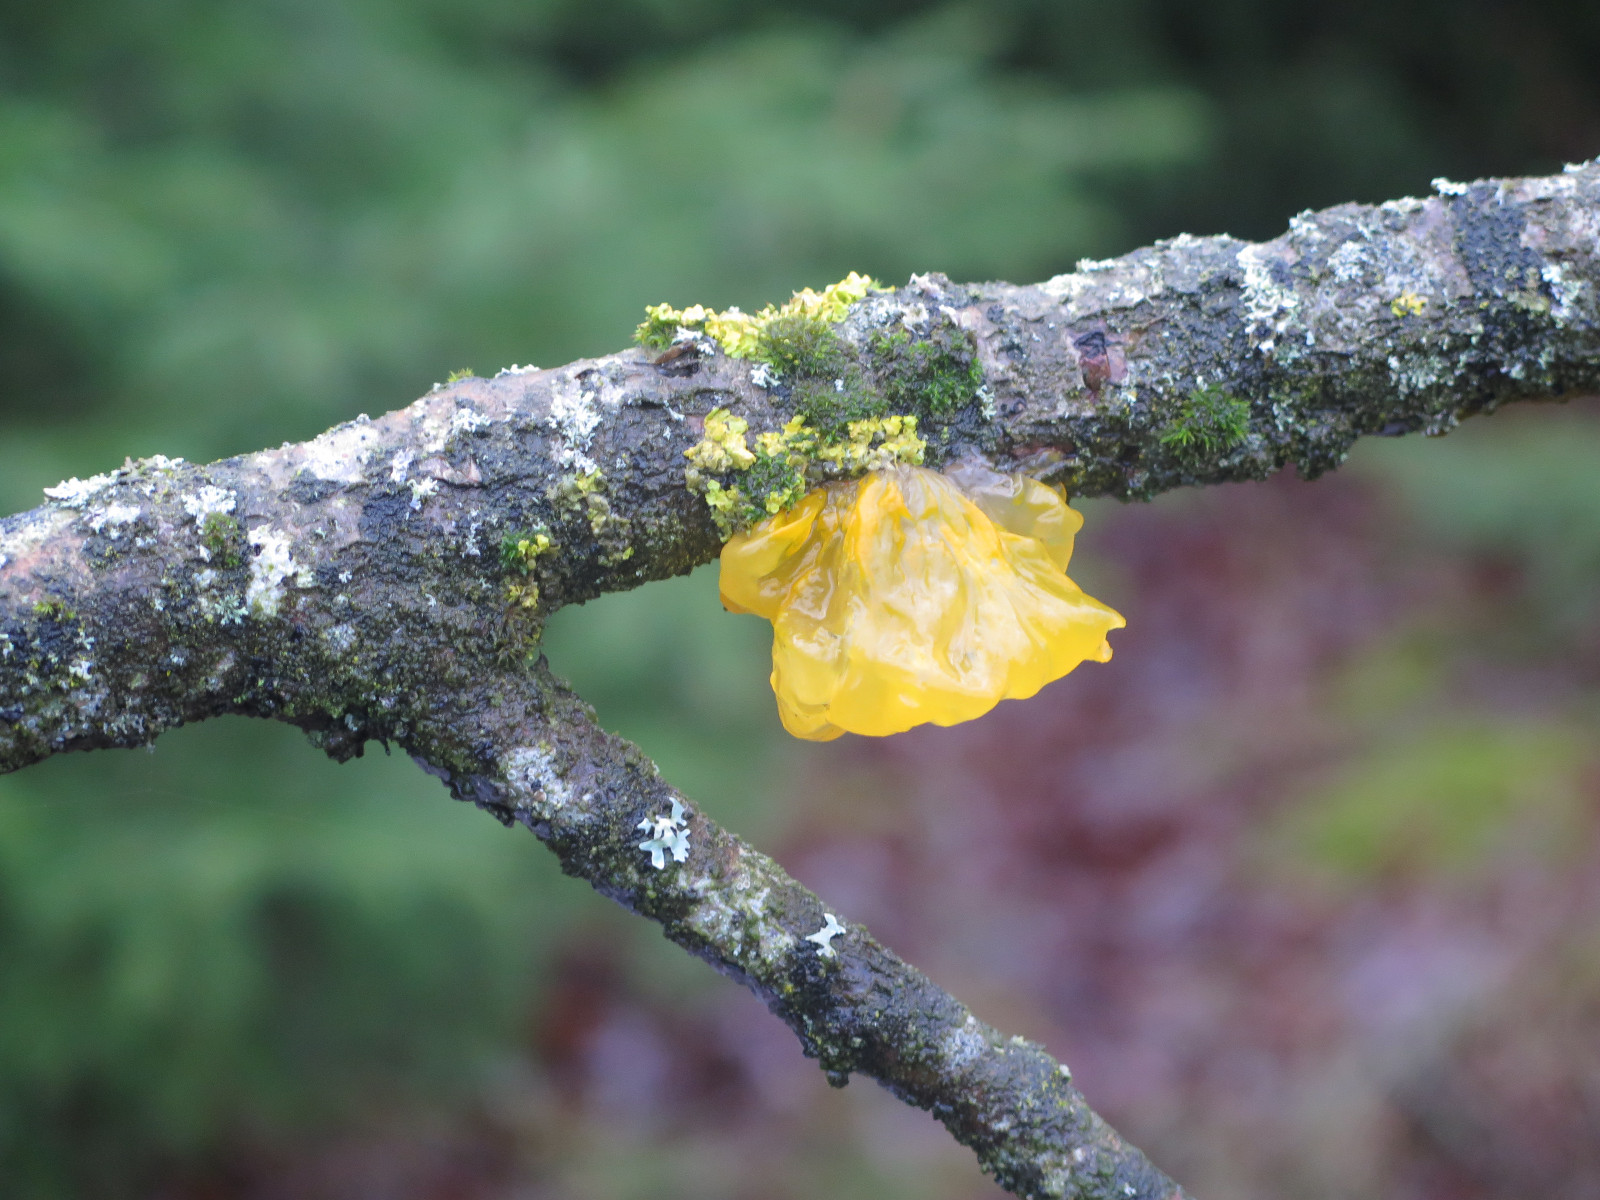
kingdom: Fungi
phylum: Basidiomycota
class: Tremellomycetes
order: Tremellales
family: Tremellaceae
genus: Tremella
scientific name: Tremella mesenterica
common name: gul bævresvamp
